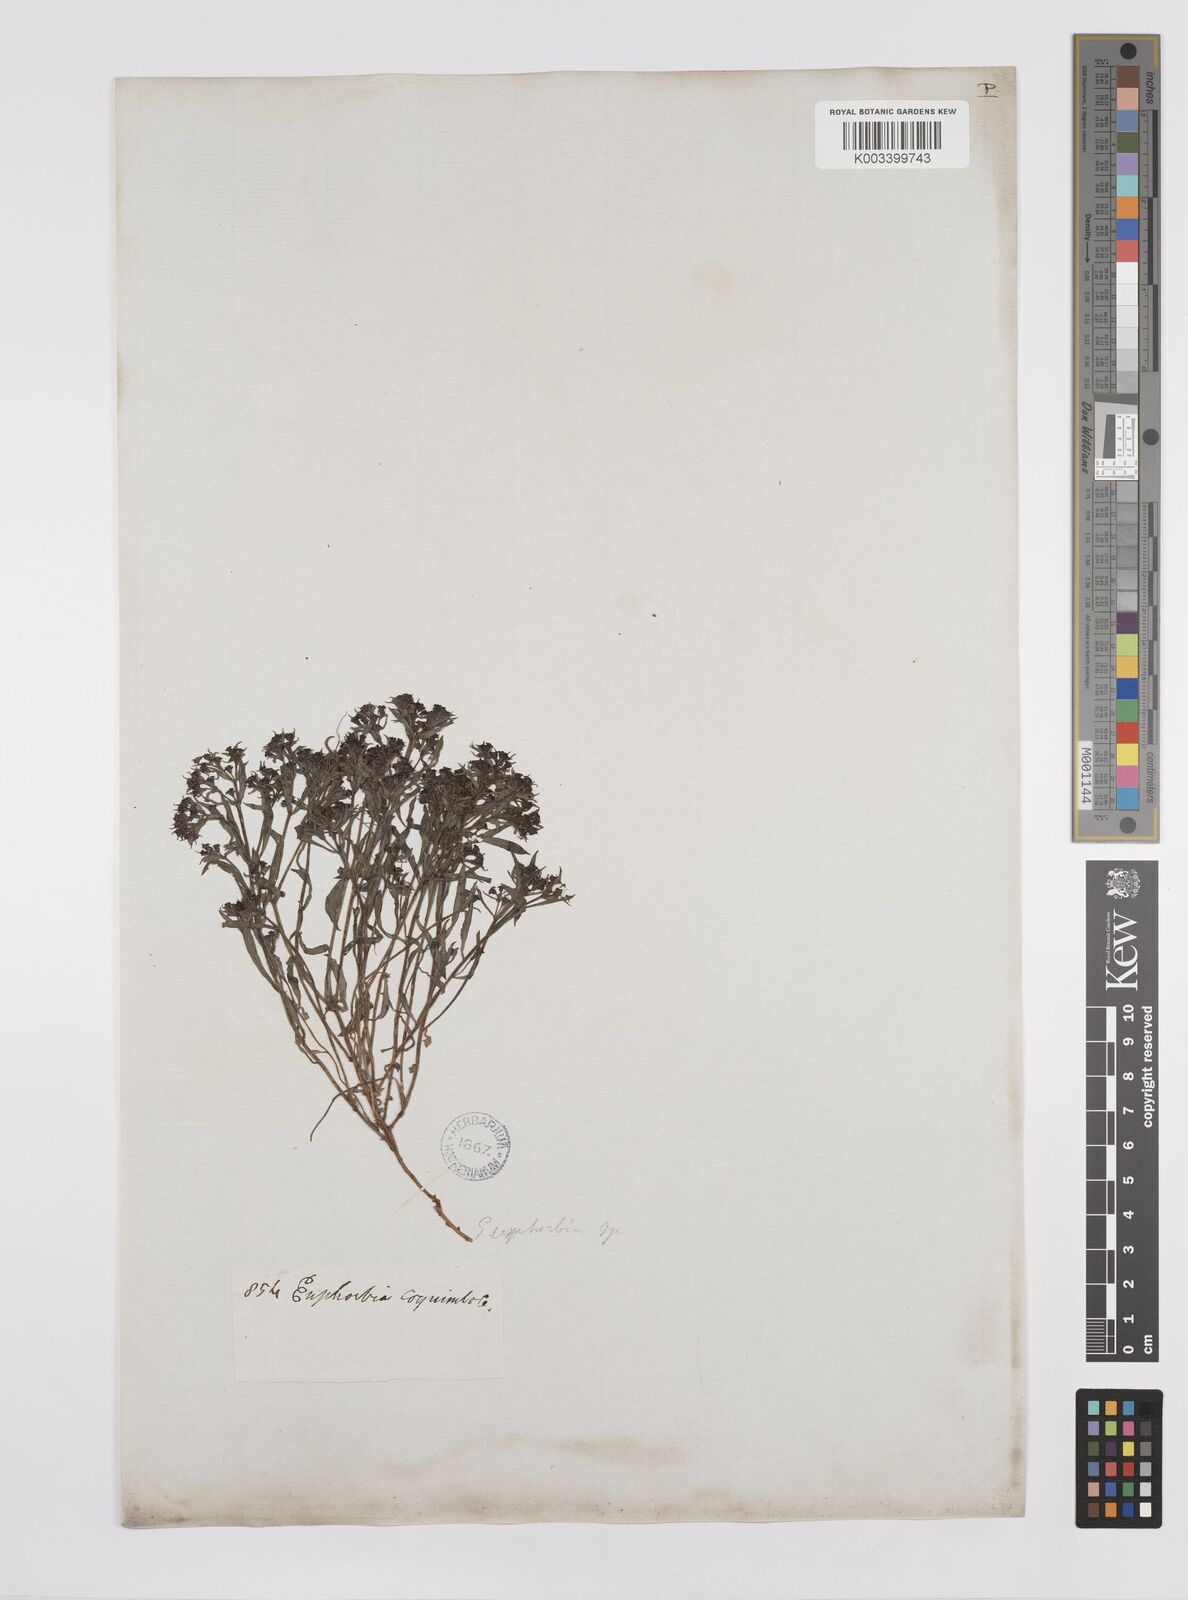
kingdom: Plantae
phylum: Tracheophyta
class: Magnoliopsida
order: Malpighiales
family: Euphorbiaceae
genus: Euphorbia
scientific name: Euphorbia
